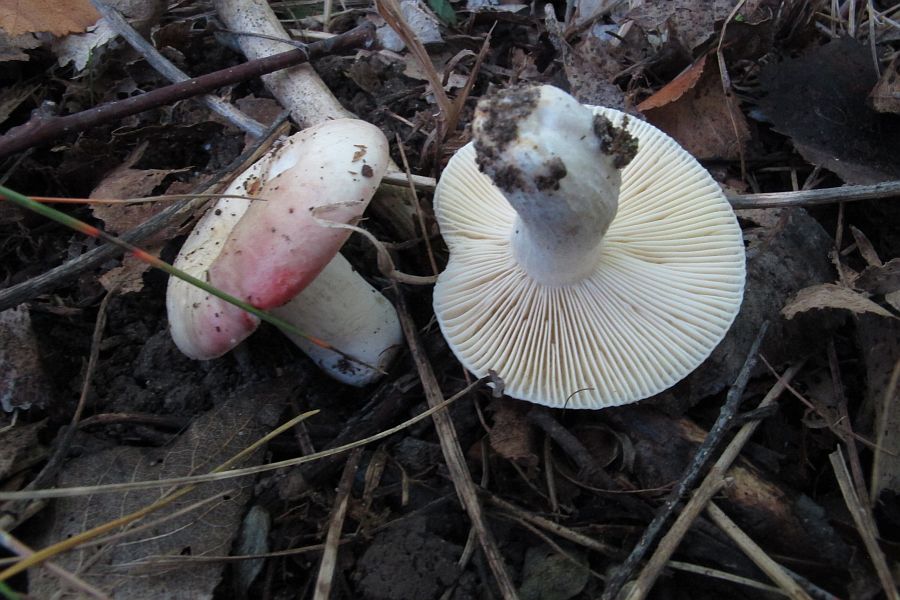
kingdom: Fungi
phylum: Basidiomycota
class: Agaricomycetes
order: Russulales
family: Russulaceae
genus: Russula
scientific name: Russula depallens
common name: falmende skørhat
